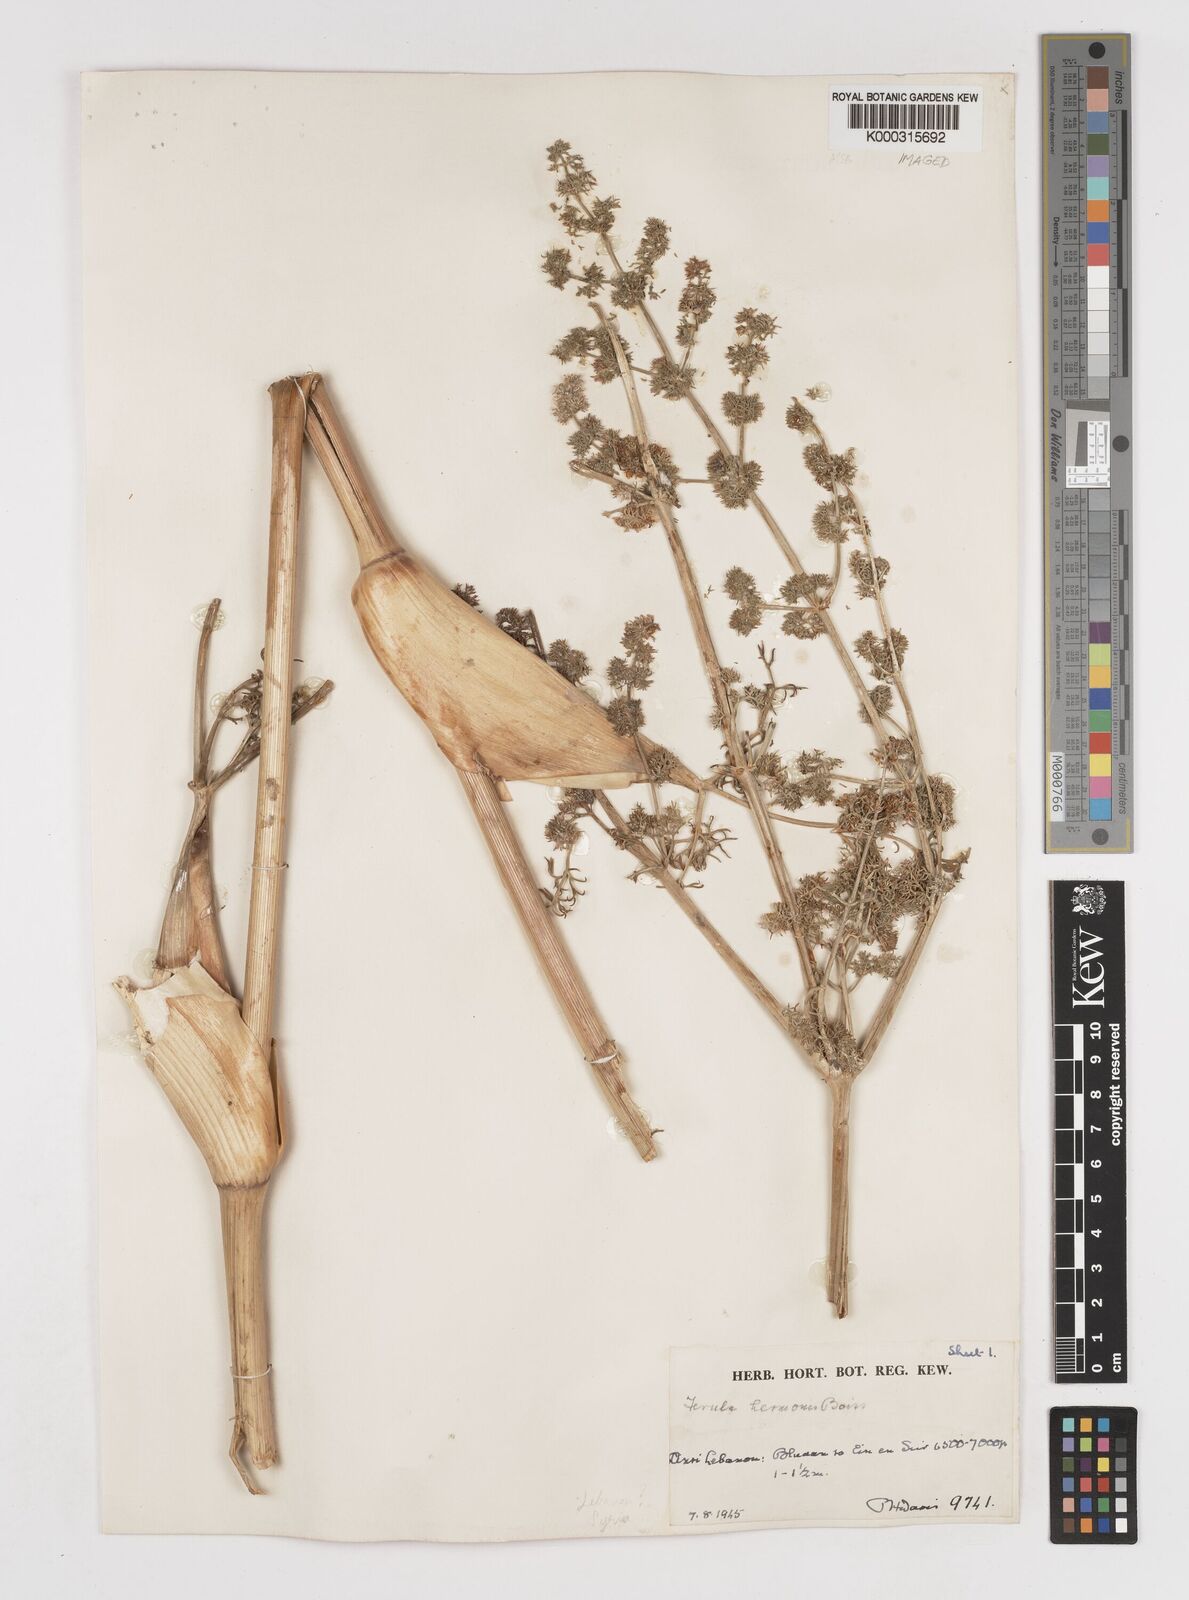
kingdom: Plantae
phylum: Tracheophyta
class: Magnoliopsida
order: Apiales
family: Apiaceae
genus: Ferula
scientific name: Ferula hermonis
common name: Hermon giant fennel
